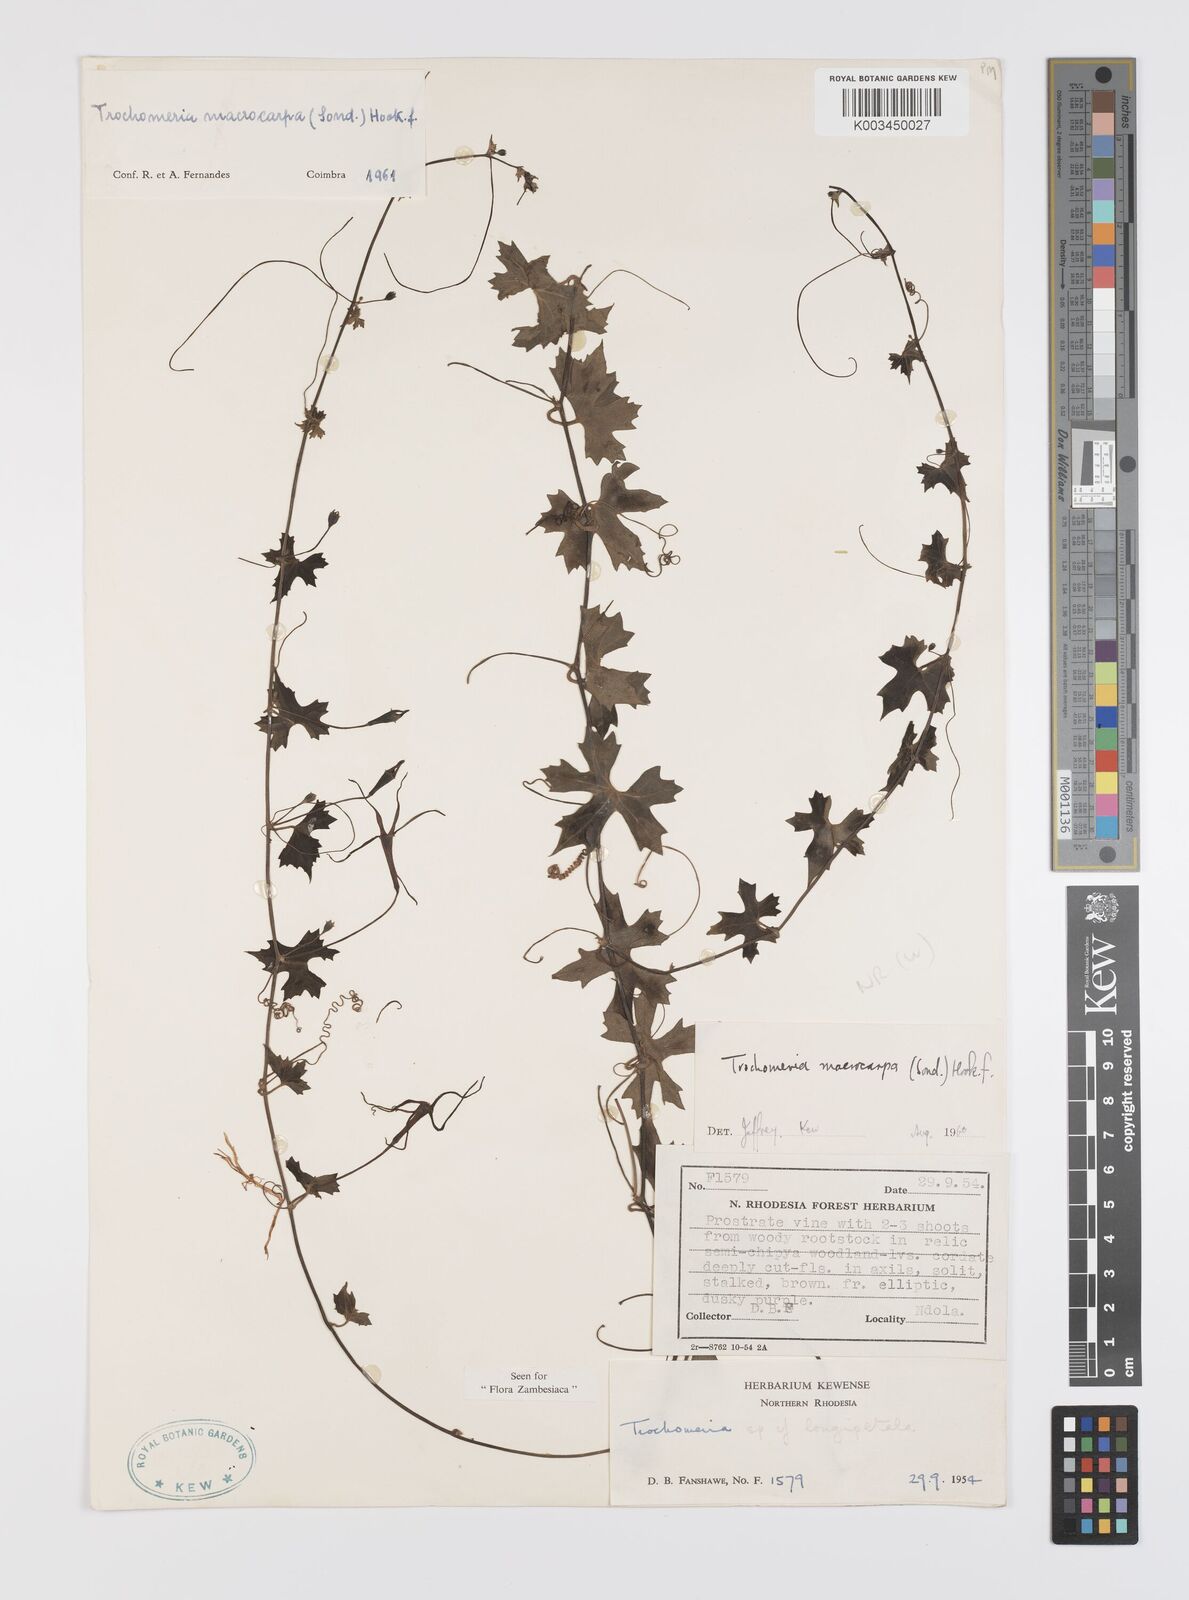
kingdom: Plantae
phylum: Tracheophyta
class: Magnoliopsida
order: Cucurbitales
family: Cucurbitaceae
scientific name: Cucurbitaceae
